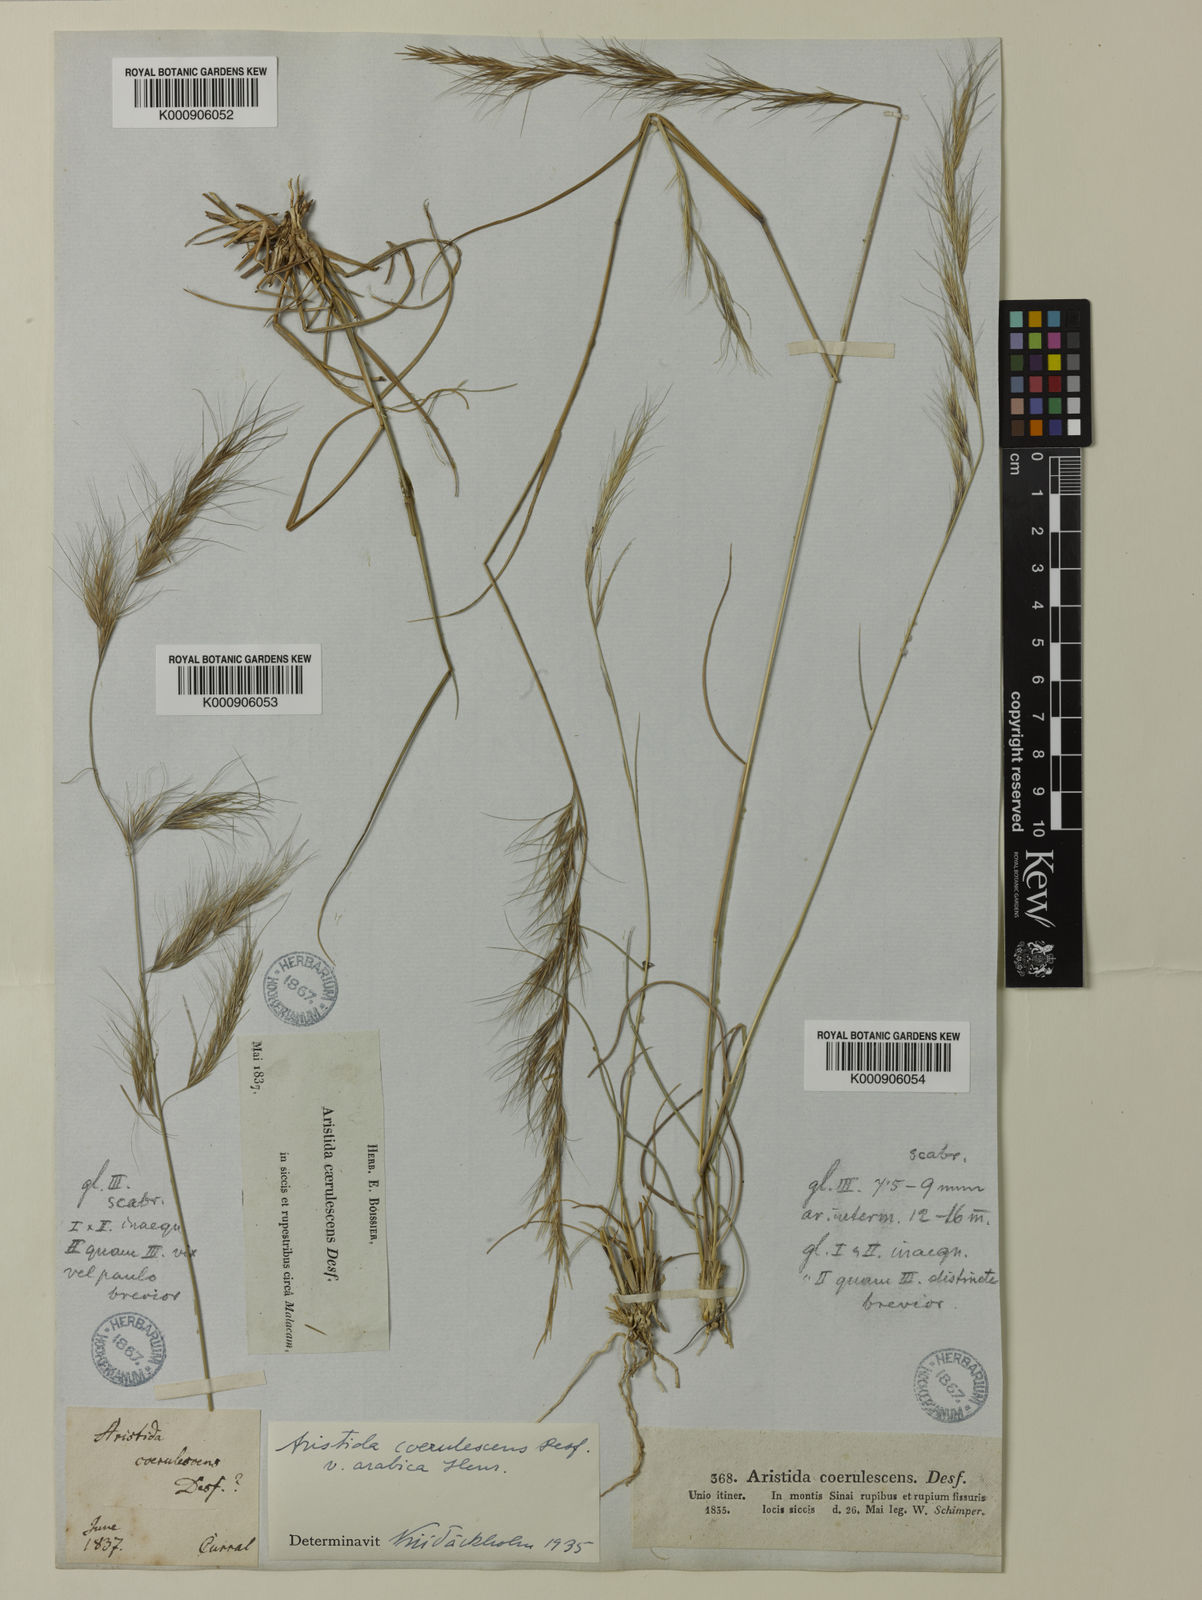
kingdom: Plantae
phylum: Tracheophyta
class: Liliopsida
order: Poales
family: Poaceae
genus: Aristida
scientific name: Aristida adscensionis
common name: Sixweeks threeawn
